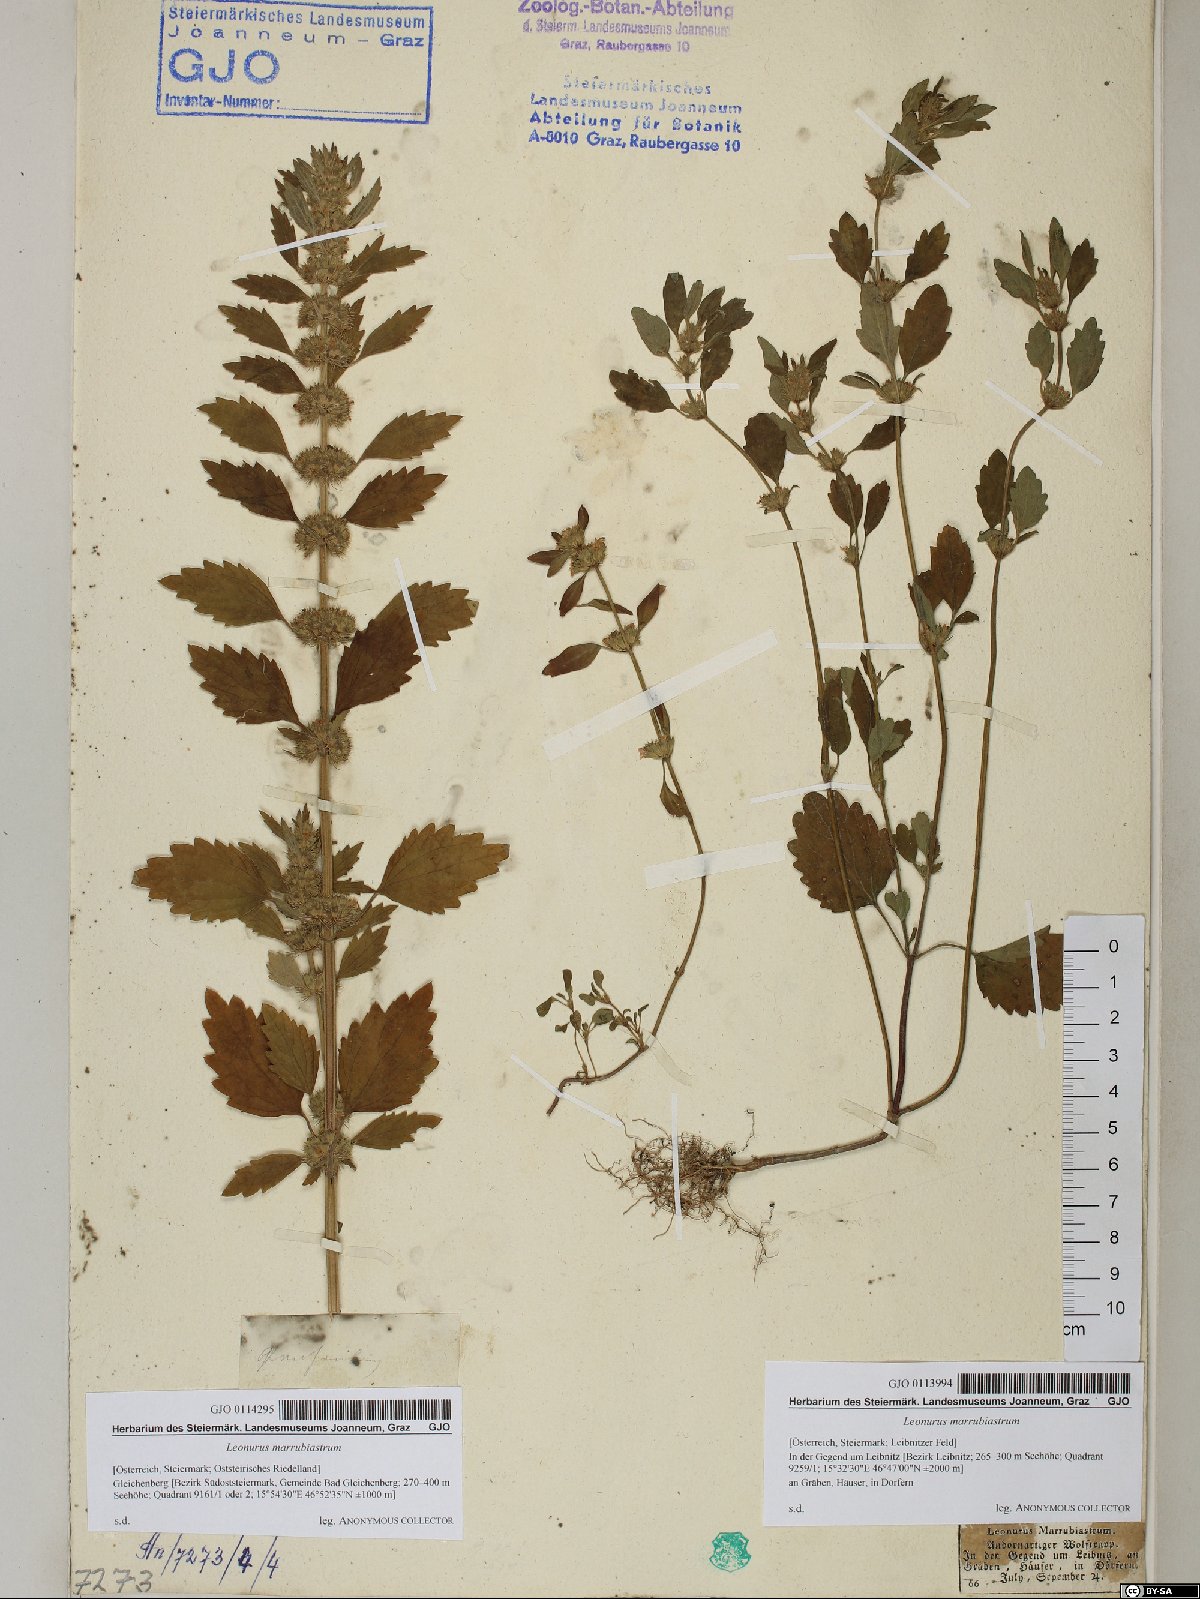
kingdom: Plantae
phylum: Tracheophyta
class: Magnoliopsida
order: Lamiales
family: Lamiaceae
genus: Chaiturus
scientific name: Chaiturus marrubiastrum
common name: Lion's tail
